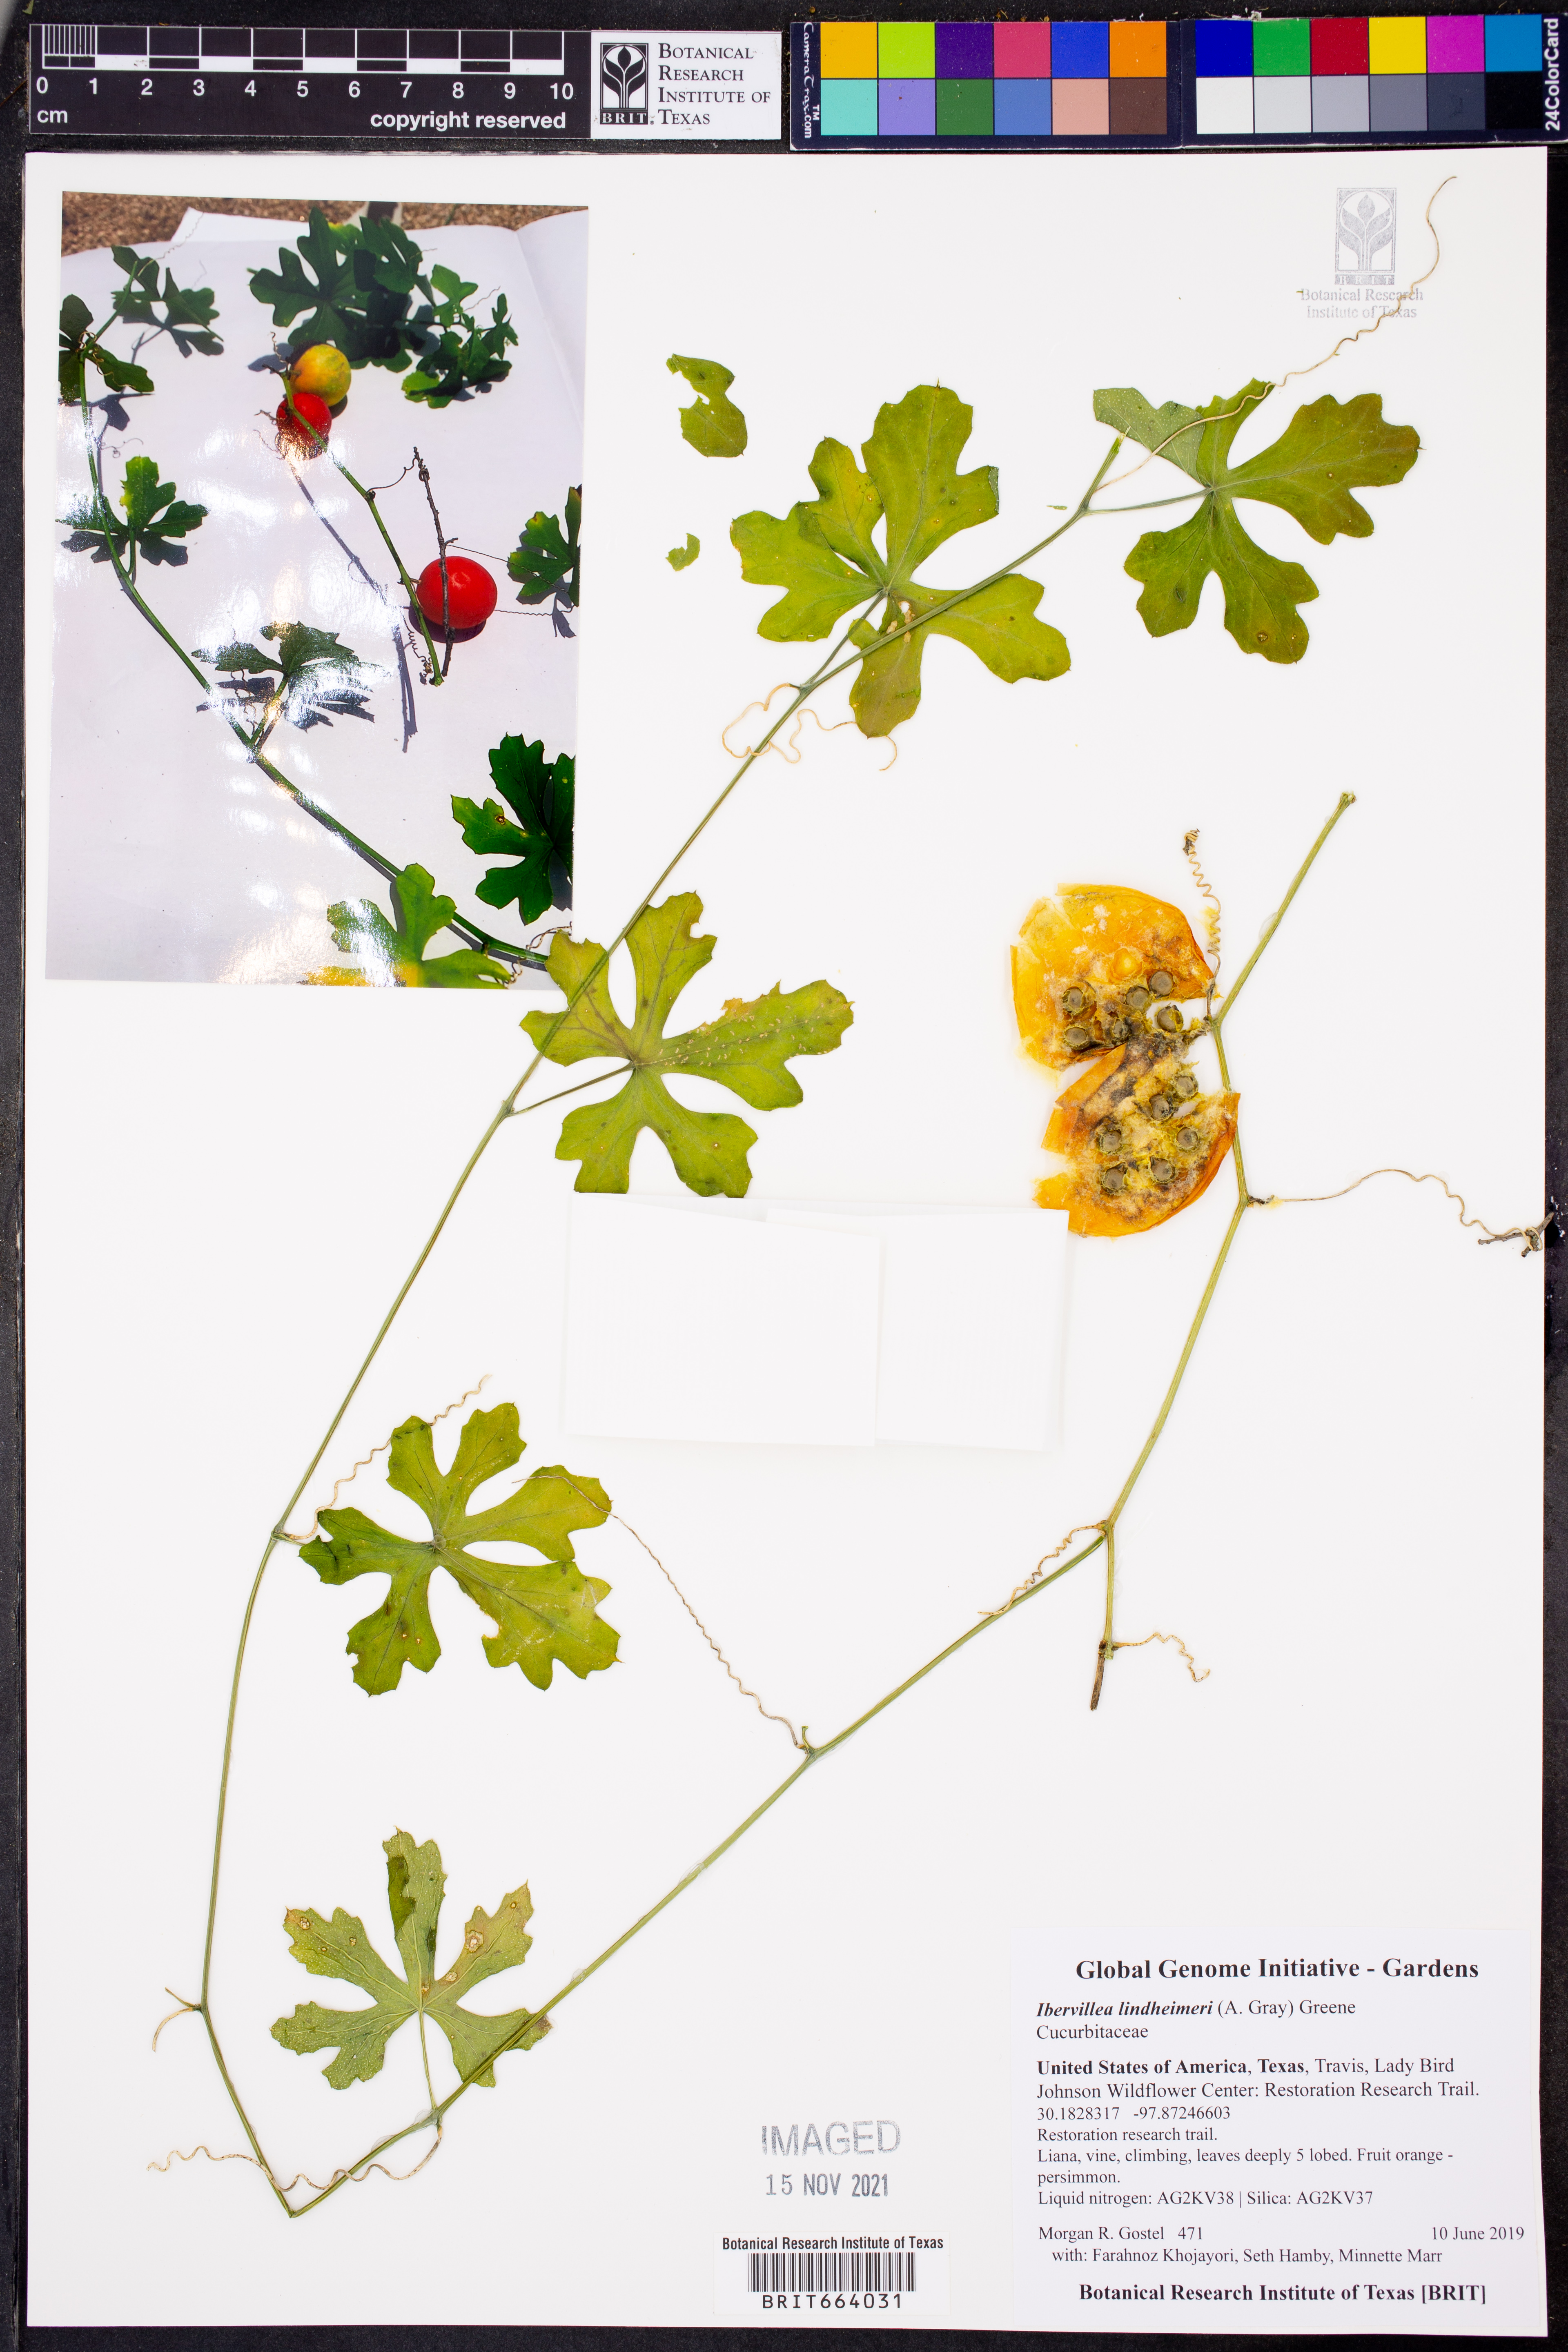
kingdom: Plantae
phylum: Tracheophyta
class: Magnoliopsida
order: Cucurbitales
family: Cucurbitaceae
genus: Ibervillea
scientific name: Ibervillea lindheimeri
